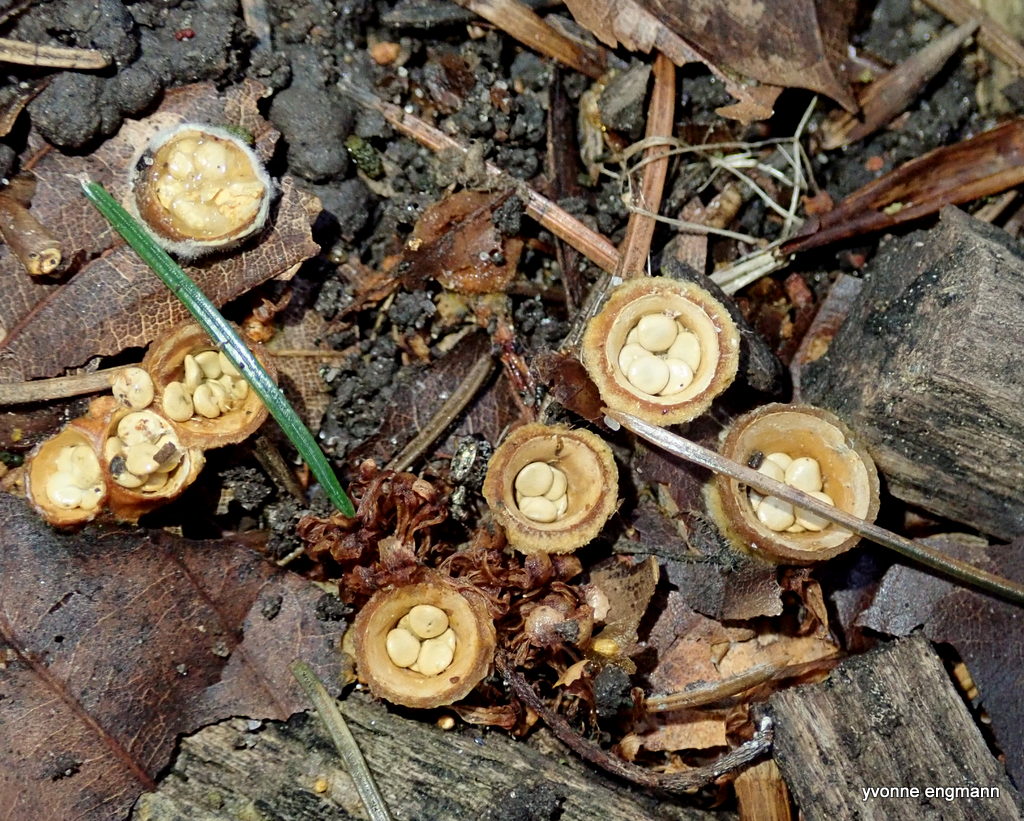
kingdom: Fungi
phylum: Basidiomycota
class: Agaricomycetes
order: Agaricales
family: Nidulariaceae
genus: Crucibulum
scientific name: Crucibulum crucibuliforme
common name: krukkesvamp
